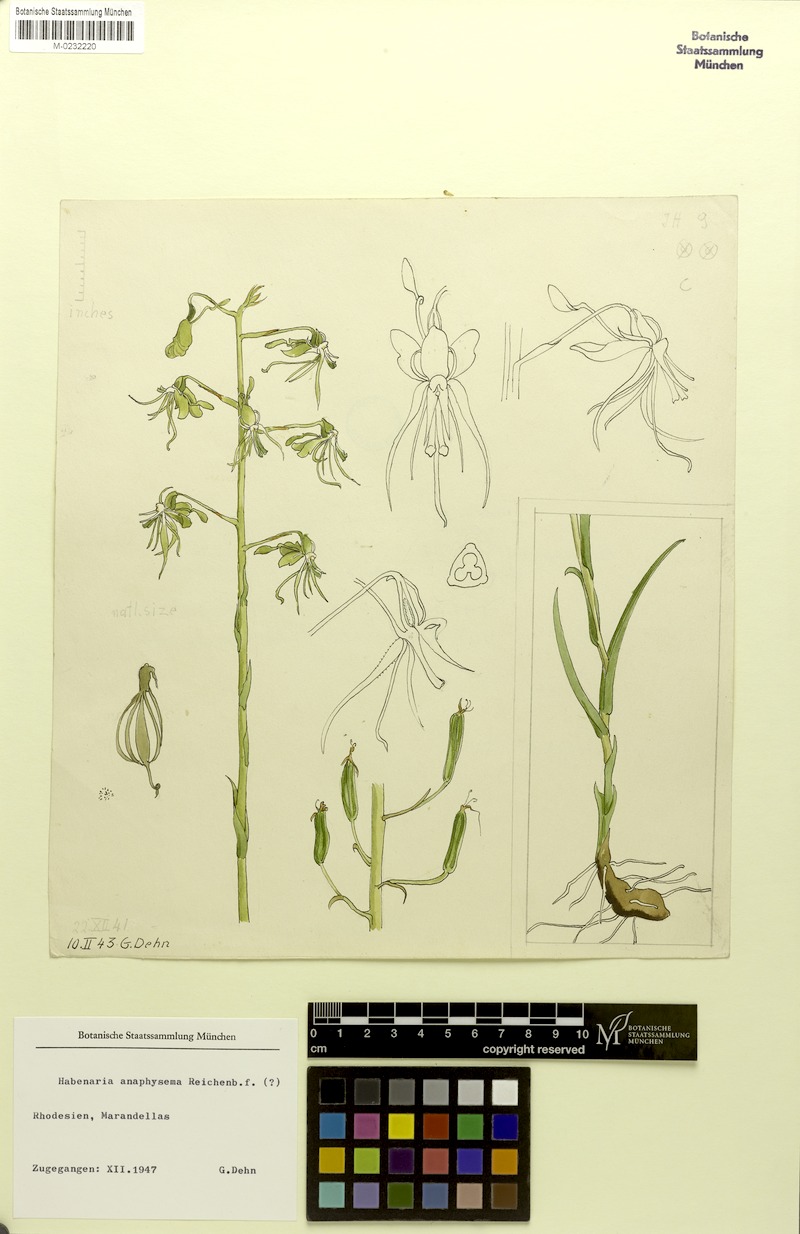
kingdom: Plantae
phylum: Tracheophyta
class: Liliopsida
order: Asparagales
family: Orchidaceae
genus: Habenaria
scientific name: Habenaria anaphysema
